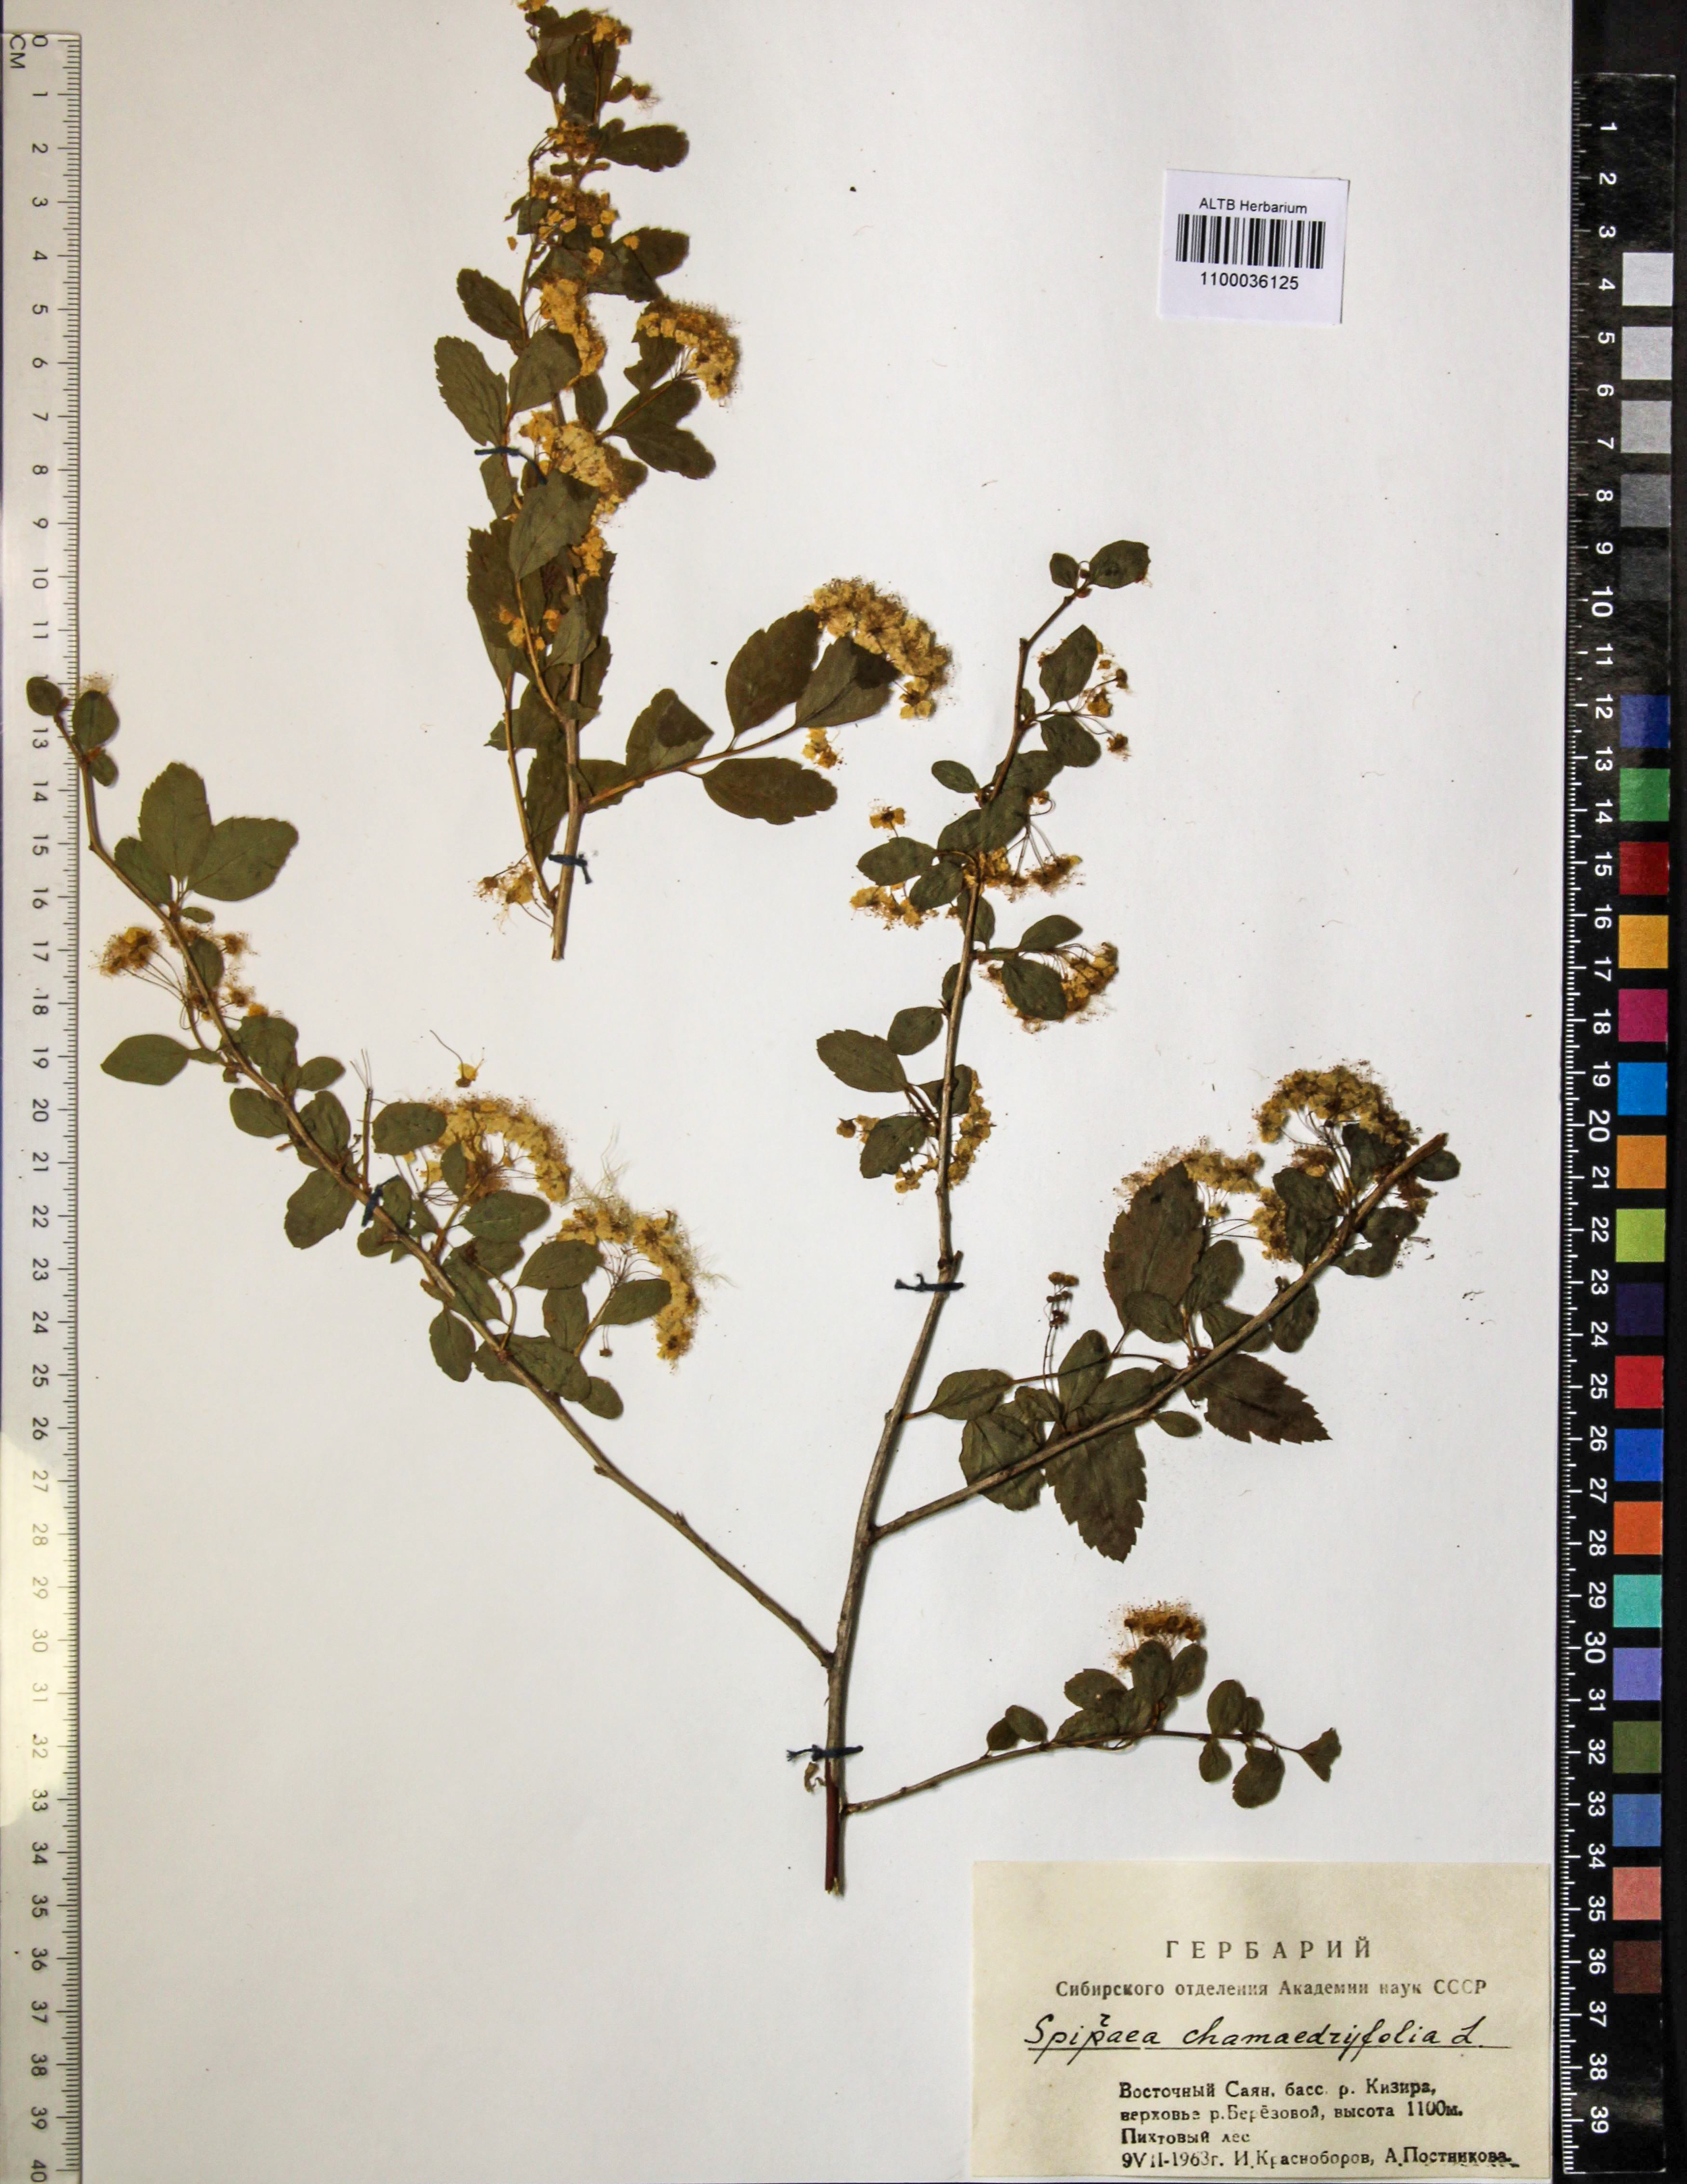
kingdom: Plantae
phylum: Tracheophyta
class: Magnoliopsida
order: Rosales
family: Rosaceae
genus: Spiraea
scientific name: Spiraea chamaedryfolia
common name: Elm-leaved spiraea
